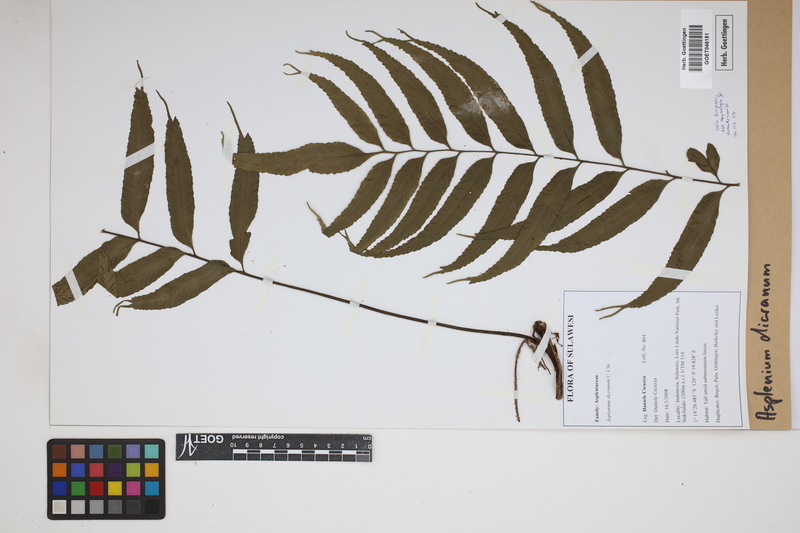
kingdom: Plantae
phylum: Tracheophyta
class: Polypodiopsida
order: Polypodiales
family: Aspleniaceae
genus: Asplenium
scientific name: Asplenium dicranurum
